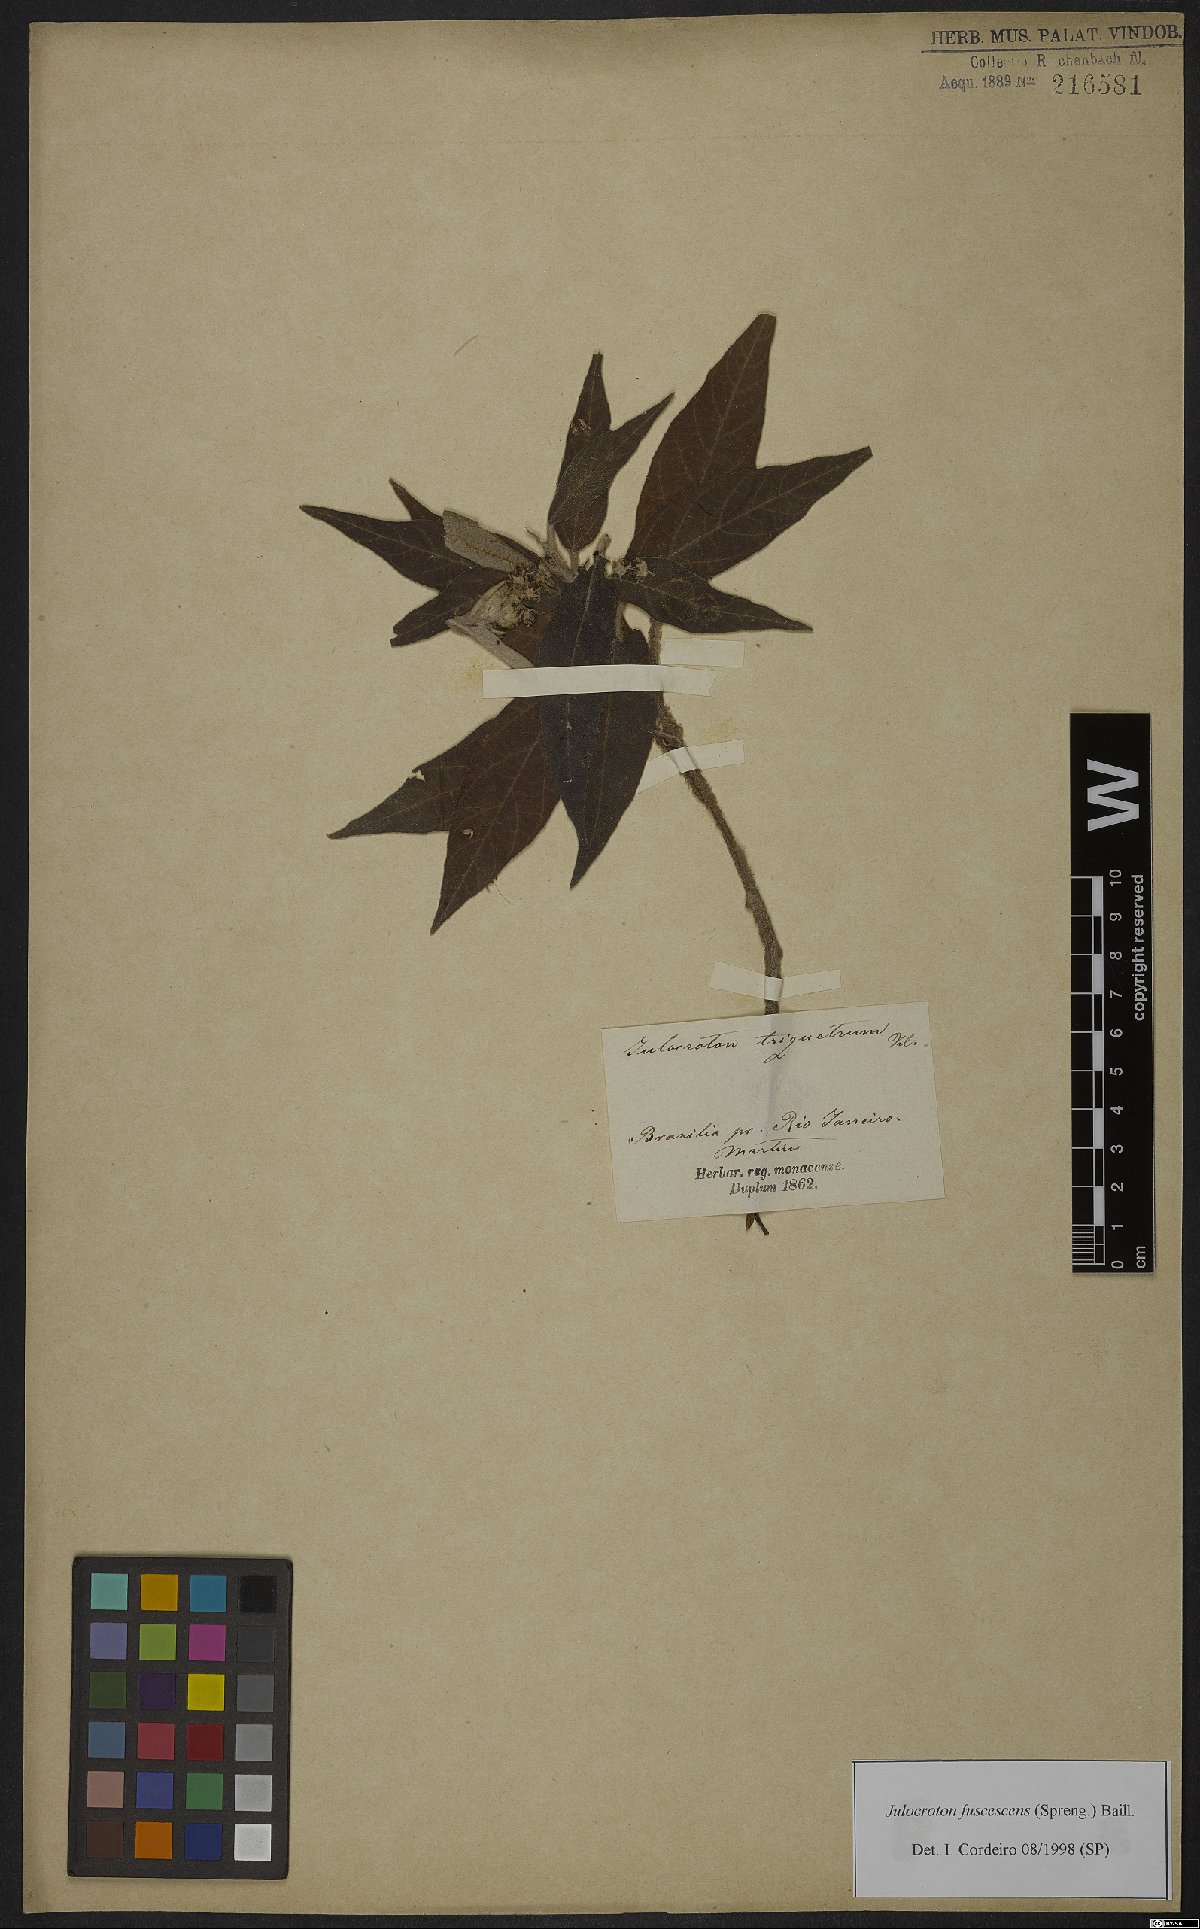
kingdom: Plantae
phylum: Tracheophyta
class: Magnoliopsida
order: Malpighiales
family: Euphorbiaceae
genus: Croton
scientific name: Croton gnaphaloides
